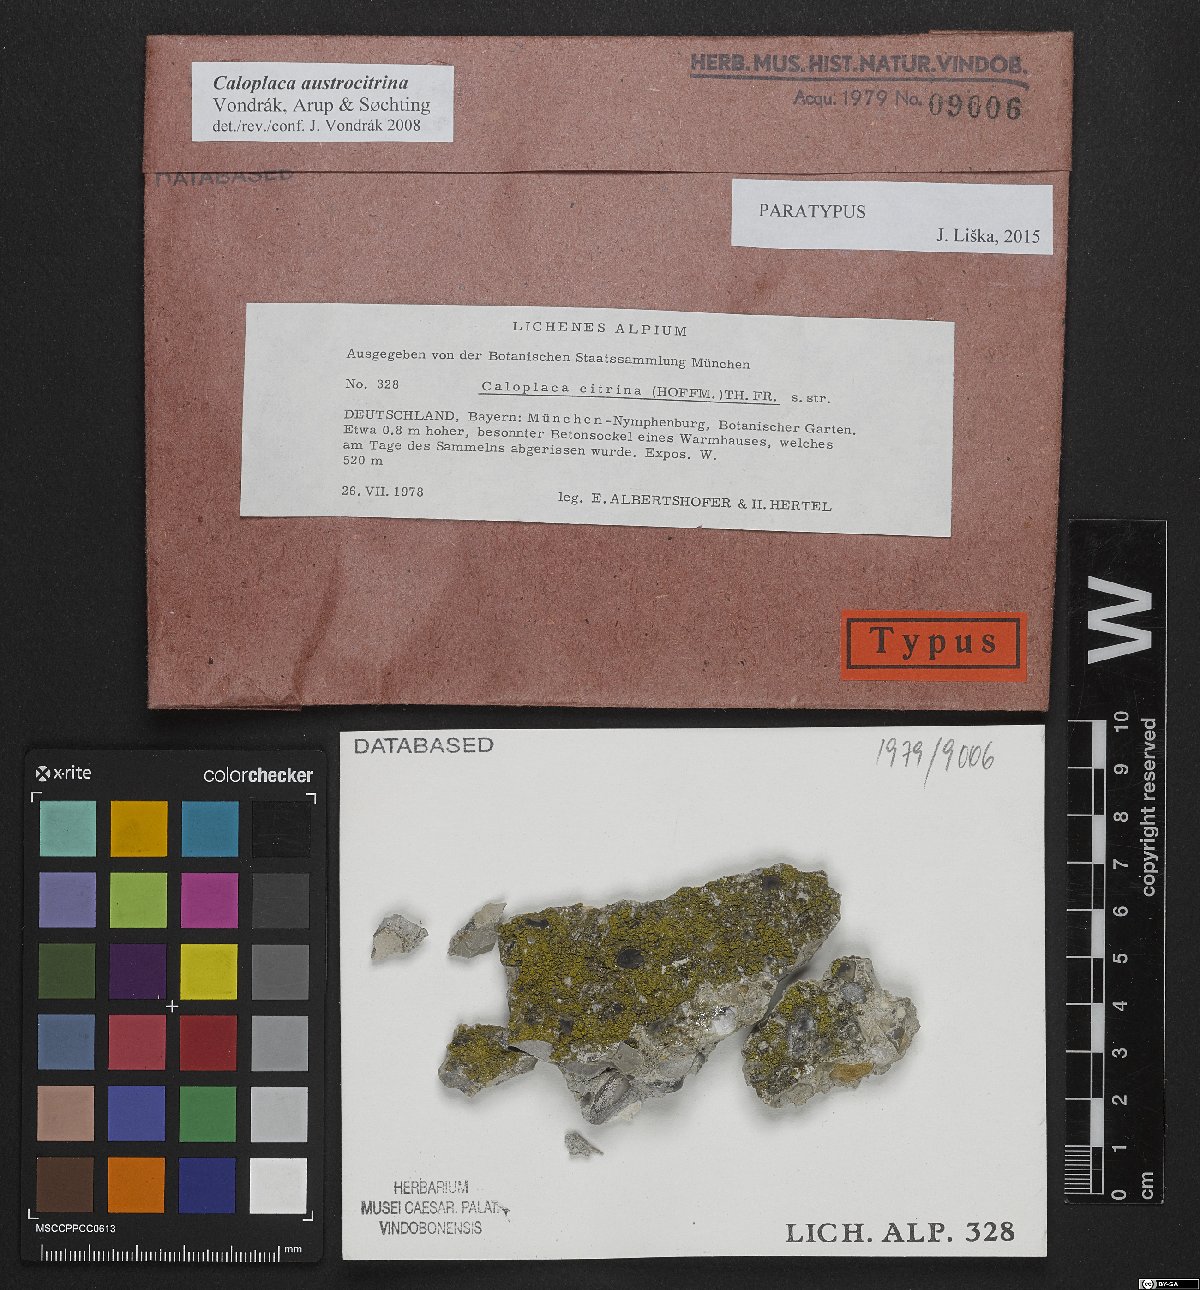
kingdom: Fungi
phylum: Ascomycota
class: Lecanoromycetes
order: Teloschistales
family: Teloschistaceae
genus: Flavoplaca
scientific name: Flavoplaca austrocitrina
